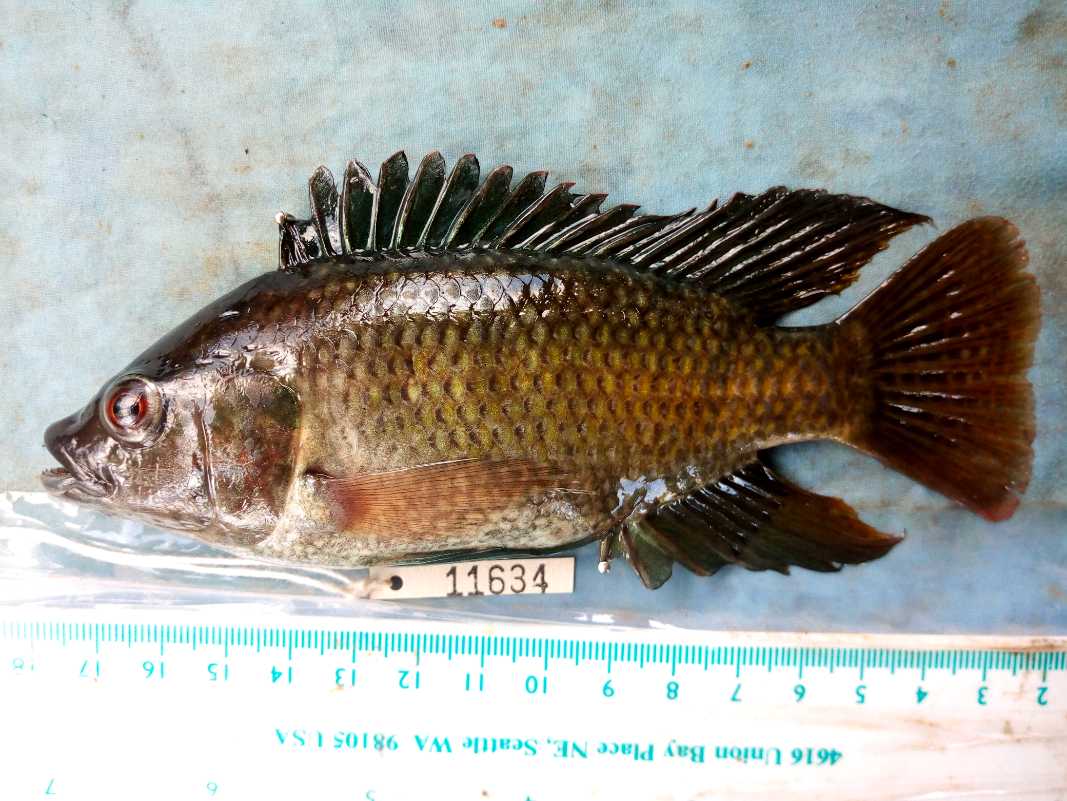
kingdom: Animalia
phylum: Chordata
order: Perciformes
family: Cichlidae
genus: Oreochromis
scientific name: Oreochromis spilurus
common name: Sabaki tilapia
